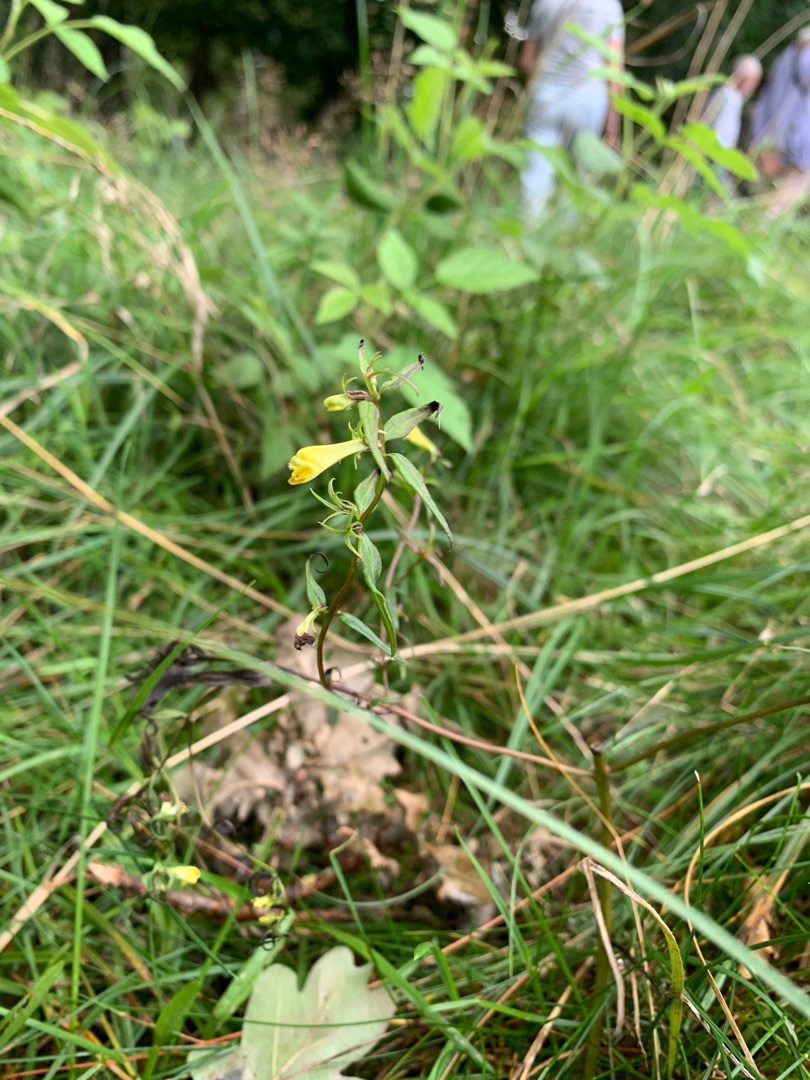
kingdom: Plantae
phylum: Tracheophyta
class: Magnoliopsida
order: Lamiales
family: Orobanchaceae
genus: Melampyrum
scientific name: Melampyrum pratense
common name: Almindelig kohvede
